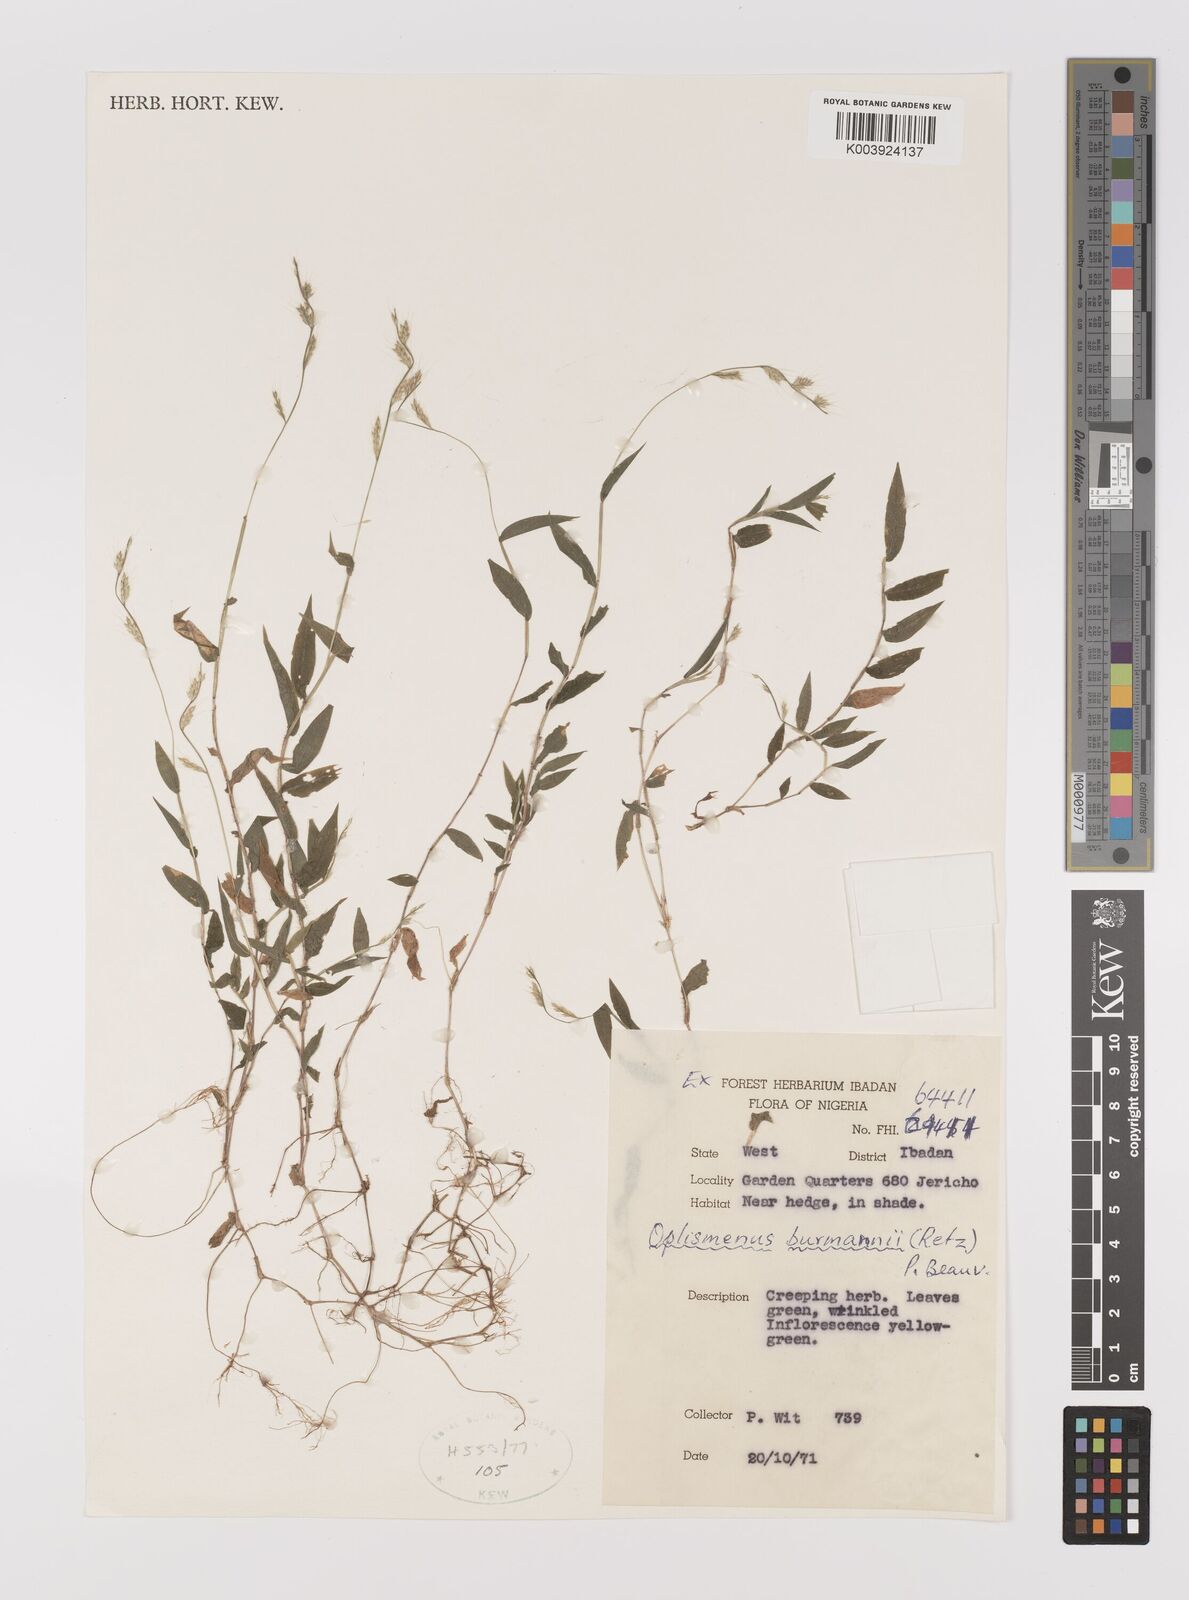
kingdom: Plantae
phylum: Tracheophyta
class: Liliopsida
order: Poales
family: Poaceae
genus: Oplismenus
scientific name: Oplismenus burmanni
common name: Burmann's basketgrass
